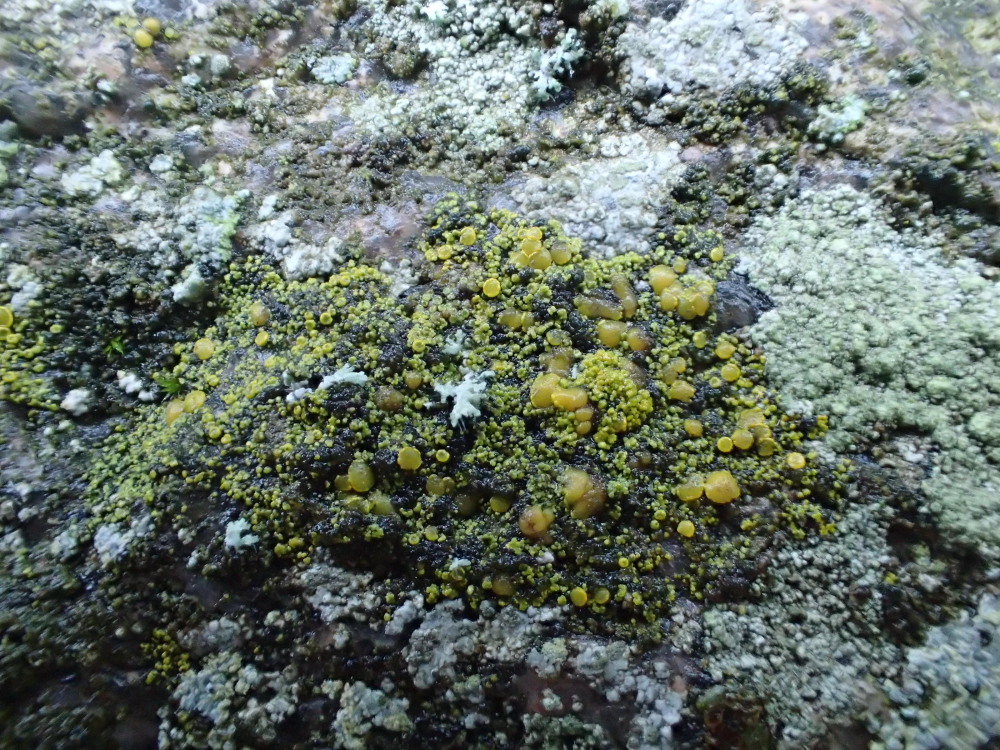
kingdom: Fungi
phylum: Ascomycota
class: Candelariomycetes
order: Candelariales
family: Candelariaceae
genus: Candelariella
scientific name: Candelariella vitellina
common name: almindelig æggeblommelav
